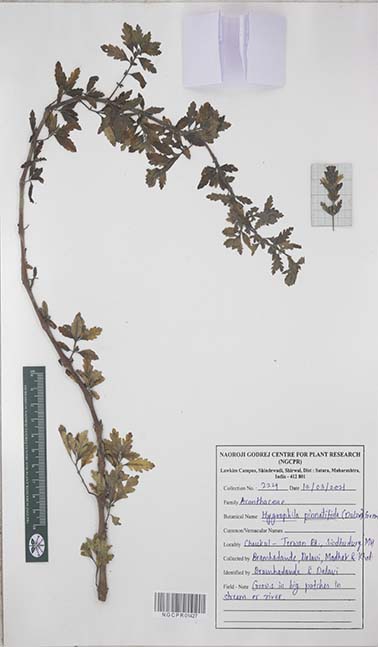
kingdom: Plantae
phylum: Tracheophyta
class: Magnoliopsida
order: Lamiales
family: Acanthaceae
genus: Hygrophila
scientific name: Hygrophila pinnatifida
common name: Indian swampweed
